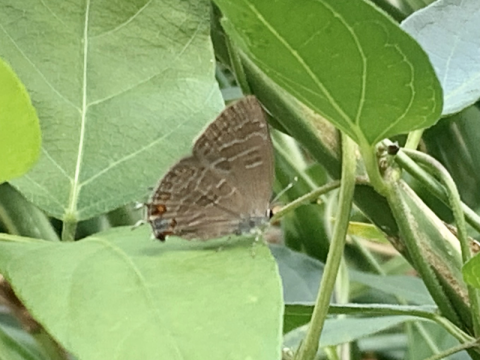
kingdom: Animalia
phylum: Arthropoda
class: Insecta
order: Lepidoptera
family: Lycaenidae
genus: Satyrium
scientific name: Satyrium liparops
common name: Striped Hairstreak
